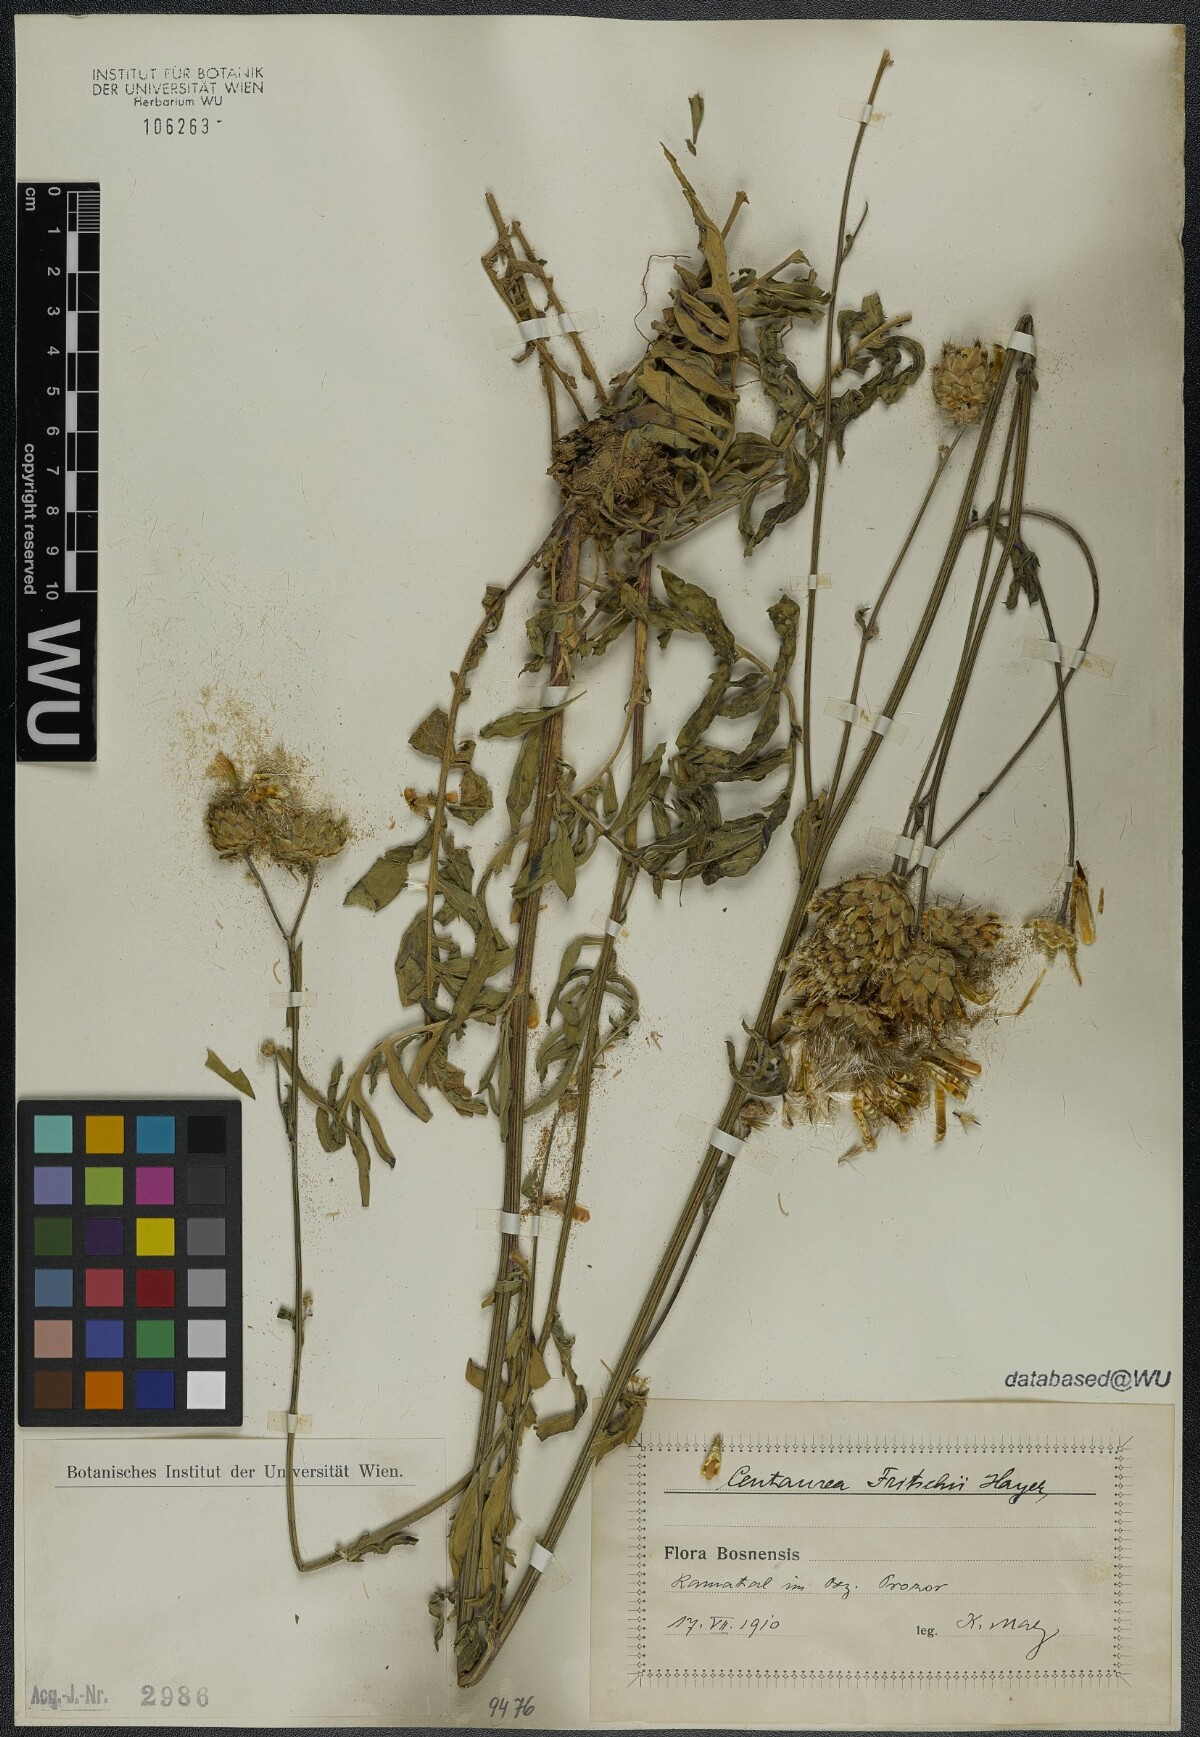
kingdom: Plantae
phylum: Tracheophyta
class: Magnoliopsida
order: Asterales
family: Asteraceae
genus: Centaurea
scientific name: Centaurea scabiosa
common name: Greater knapweed
